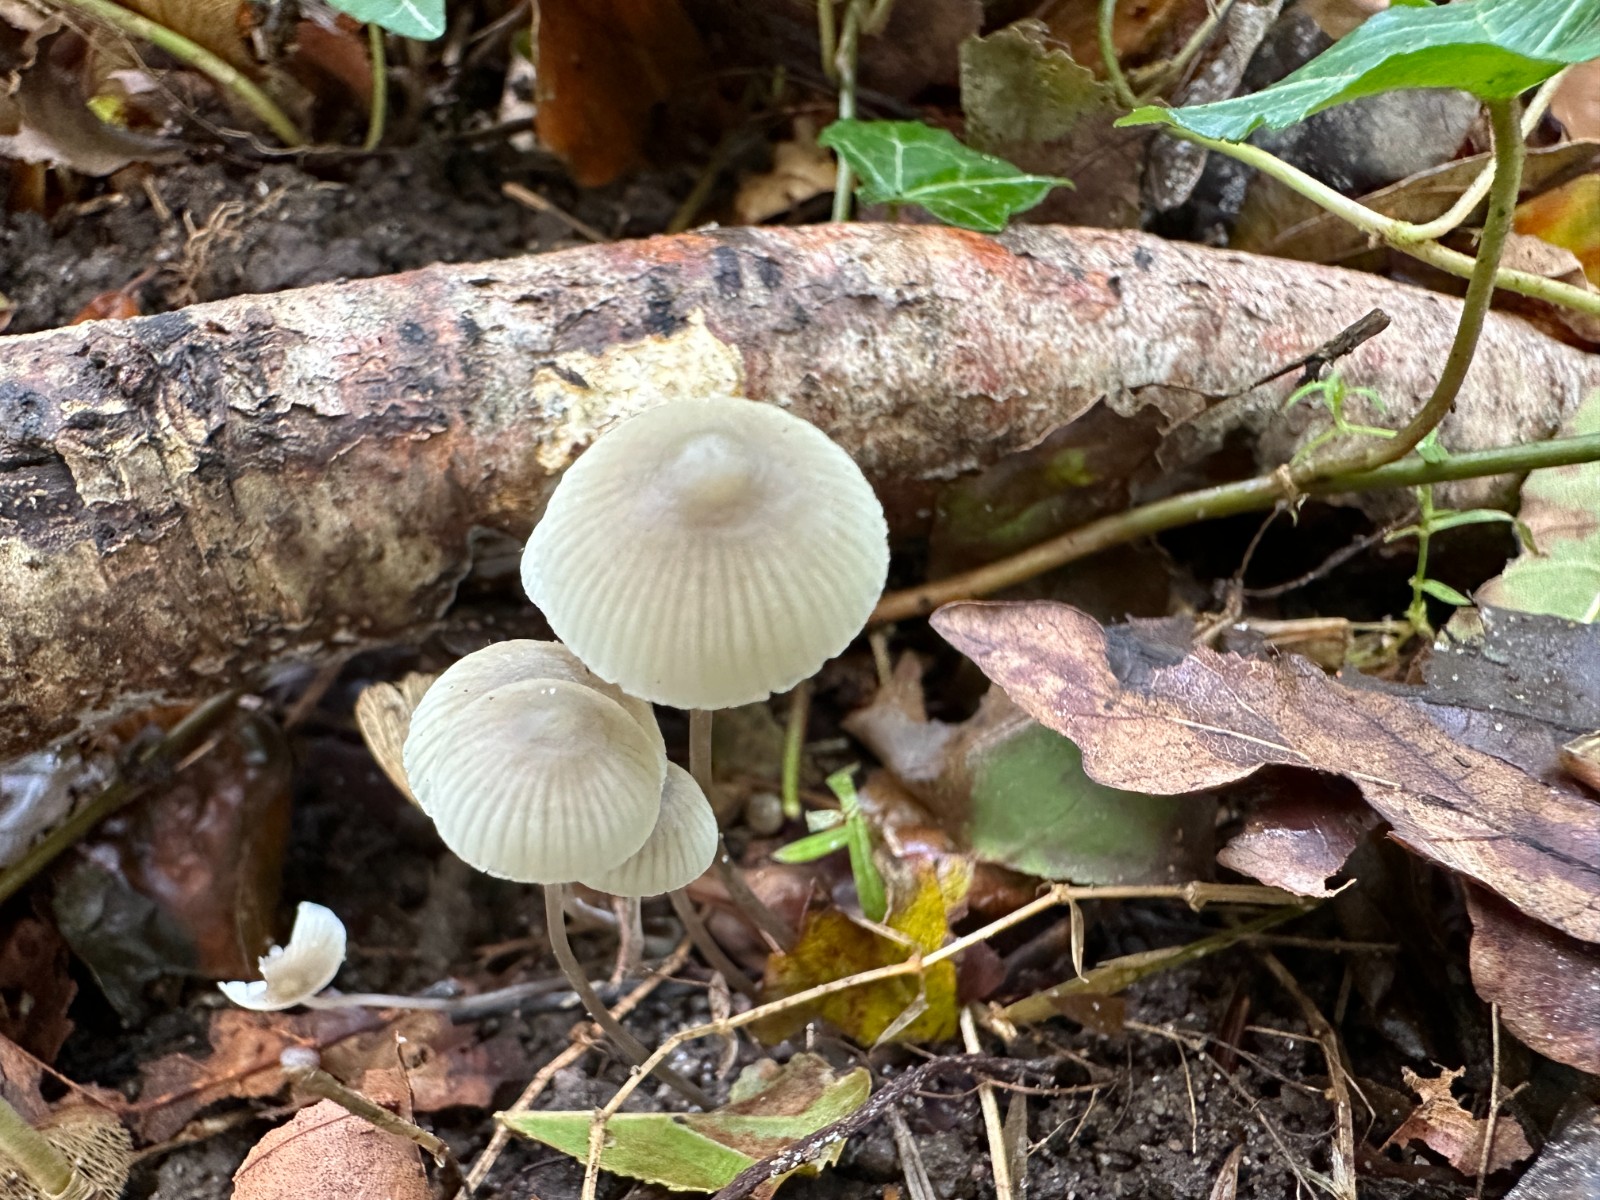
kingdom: Fungi
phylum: Basidiomycota
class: Agaricomycetes
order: Agaricales
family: Mycenaceae
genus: Mycena
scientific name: Mycena flavescens
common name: grågul huesvamp
